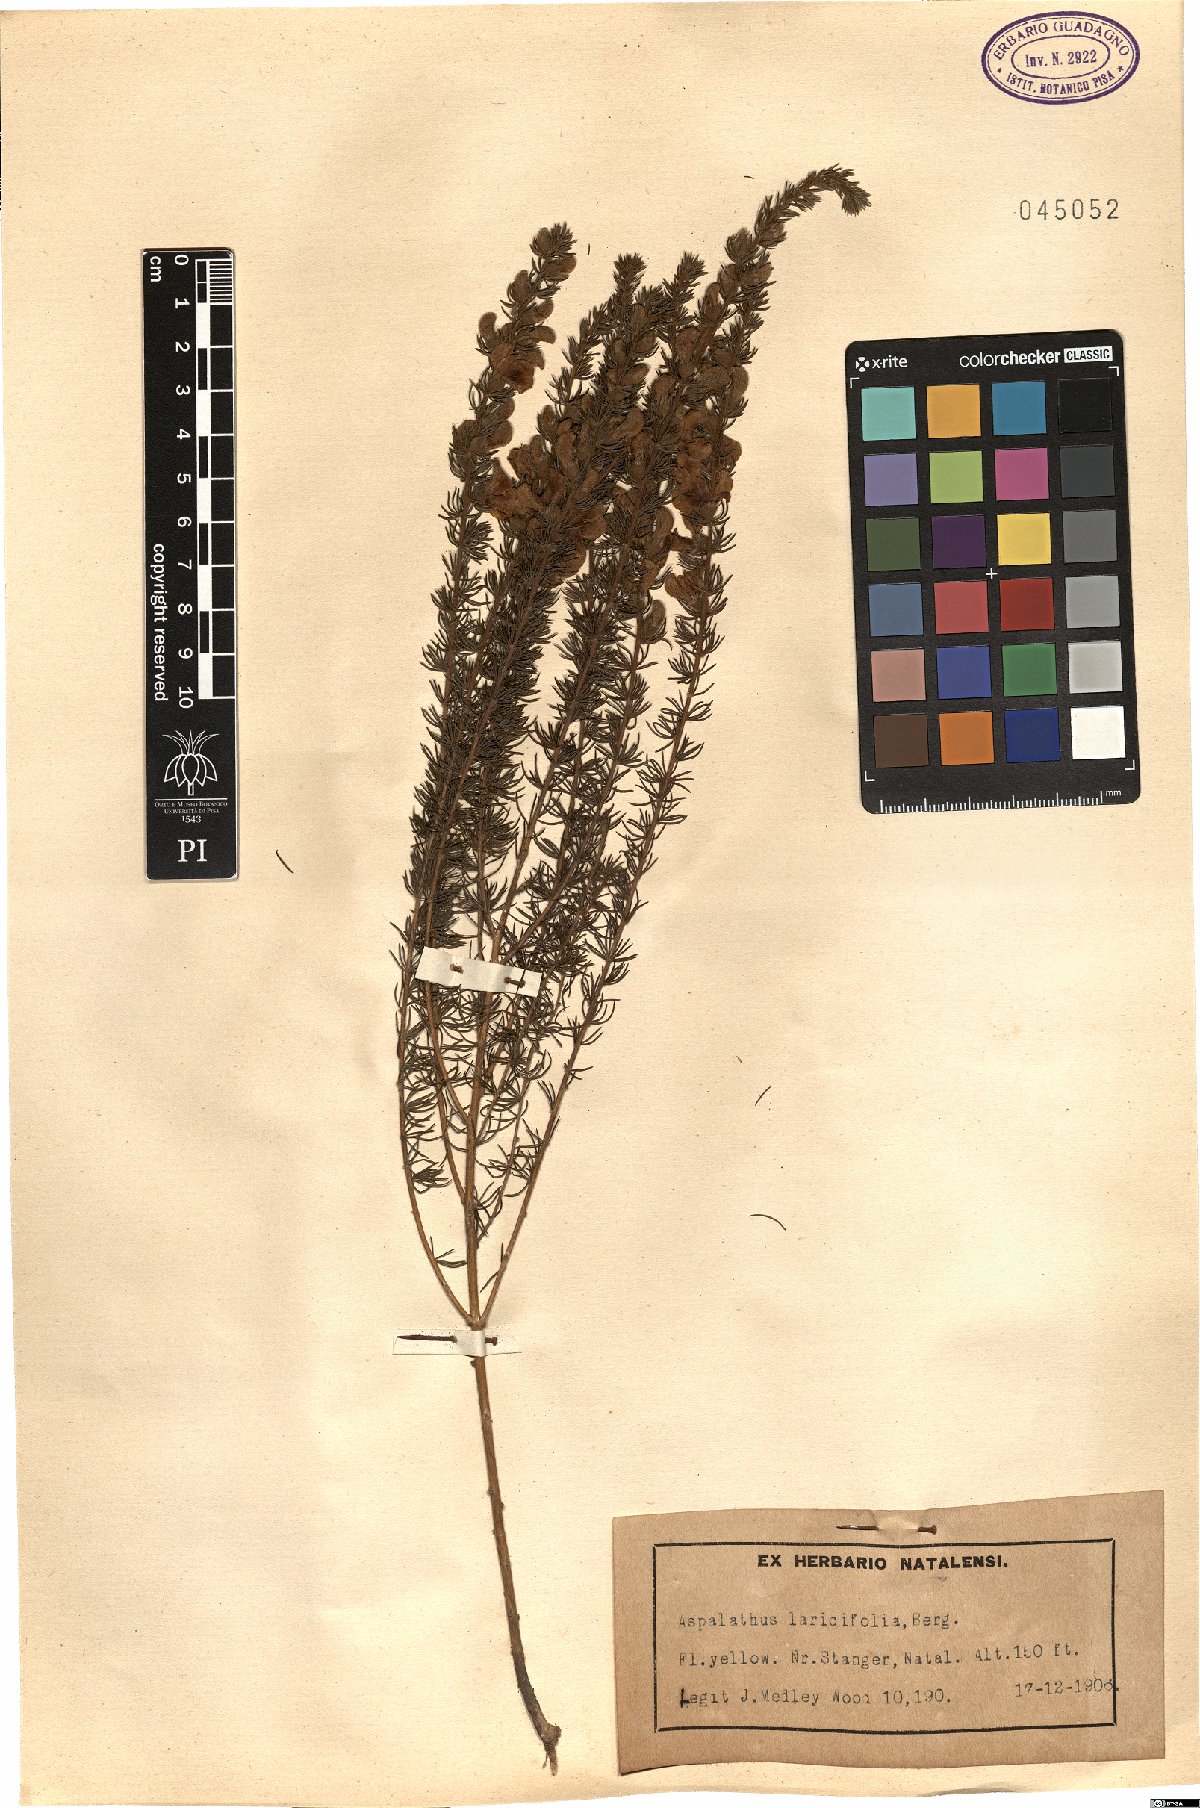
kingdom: Plantae
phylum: Tracheophyta
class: Magnoliopsida
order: Fabales
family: Fabaceae
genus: Aspalathus
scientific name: Aspalathus laricifolia
